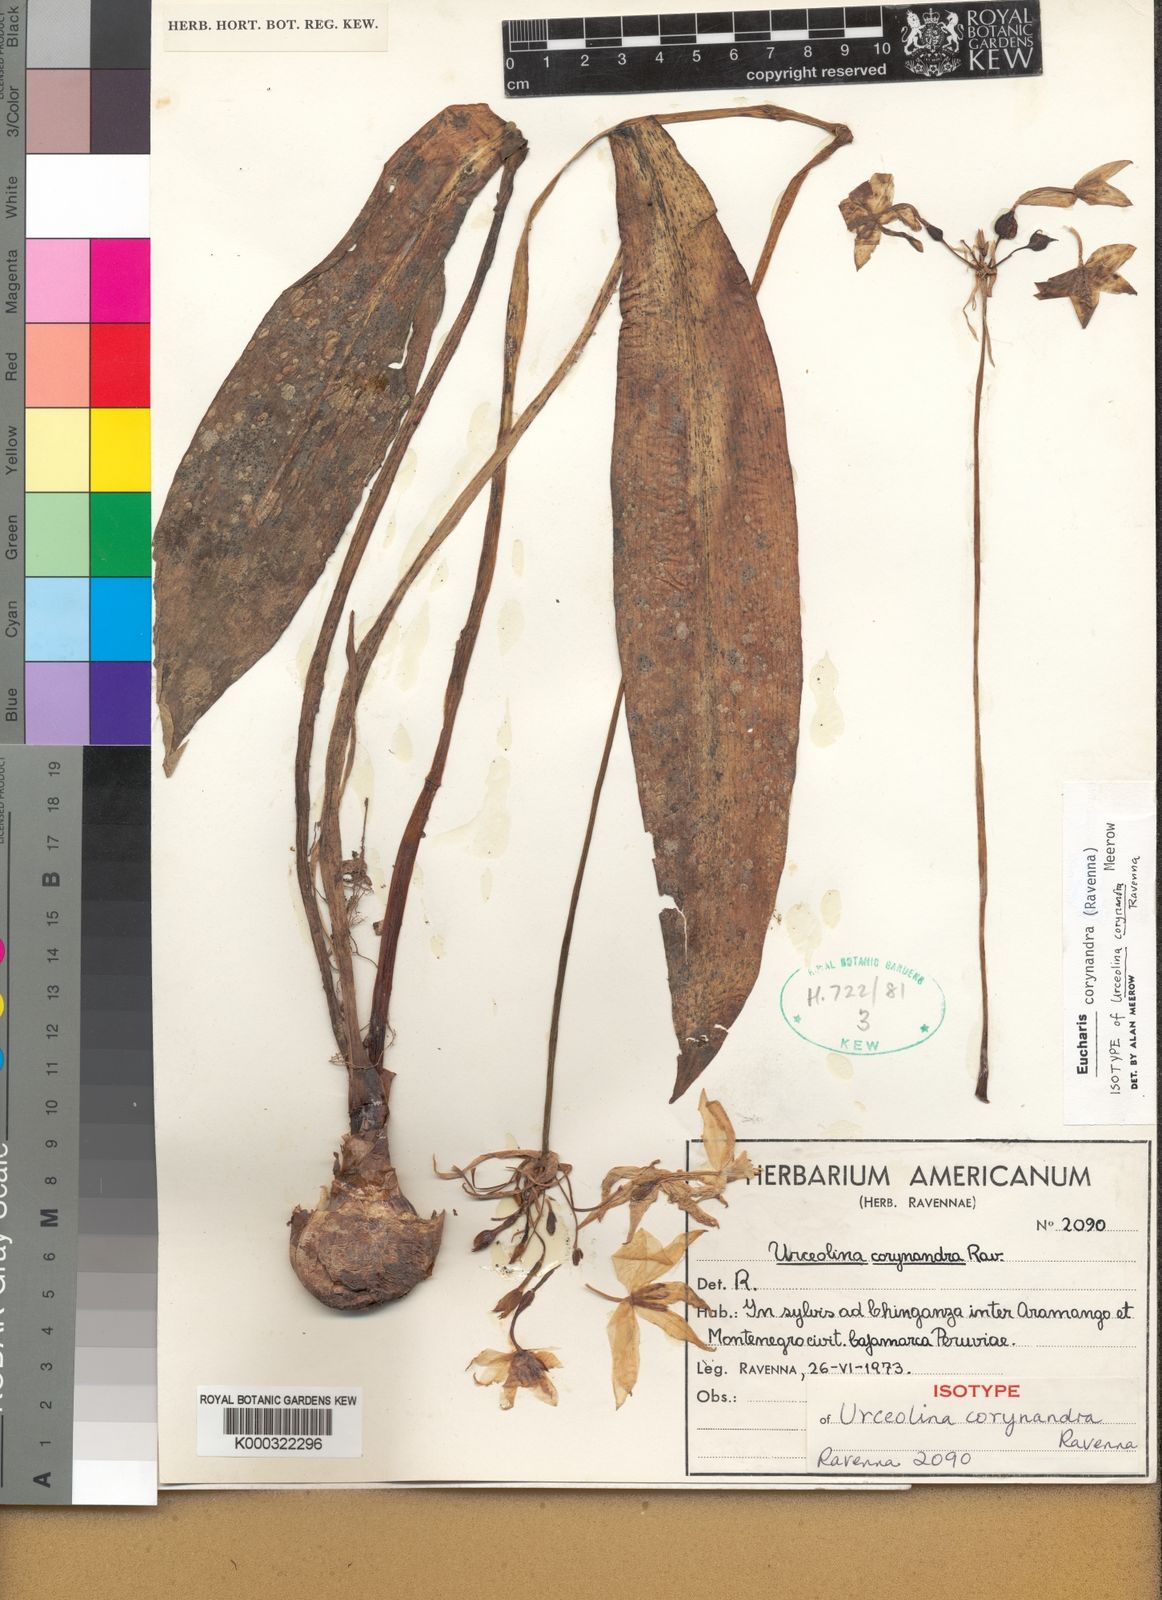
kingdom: Plantae
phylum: Tracheophyta
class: Liliopsida
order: Asparagales
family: Amaryllidaceae
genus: Urceolina
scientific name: Urceolina
